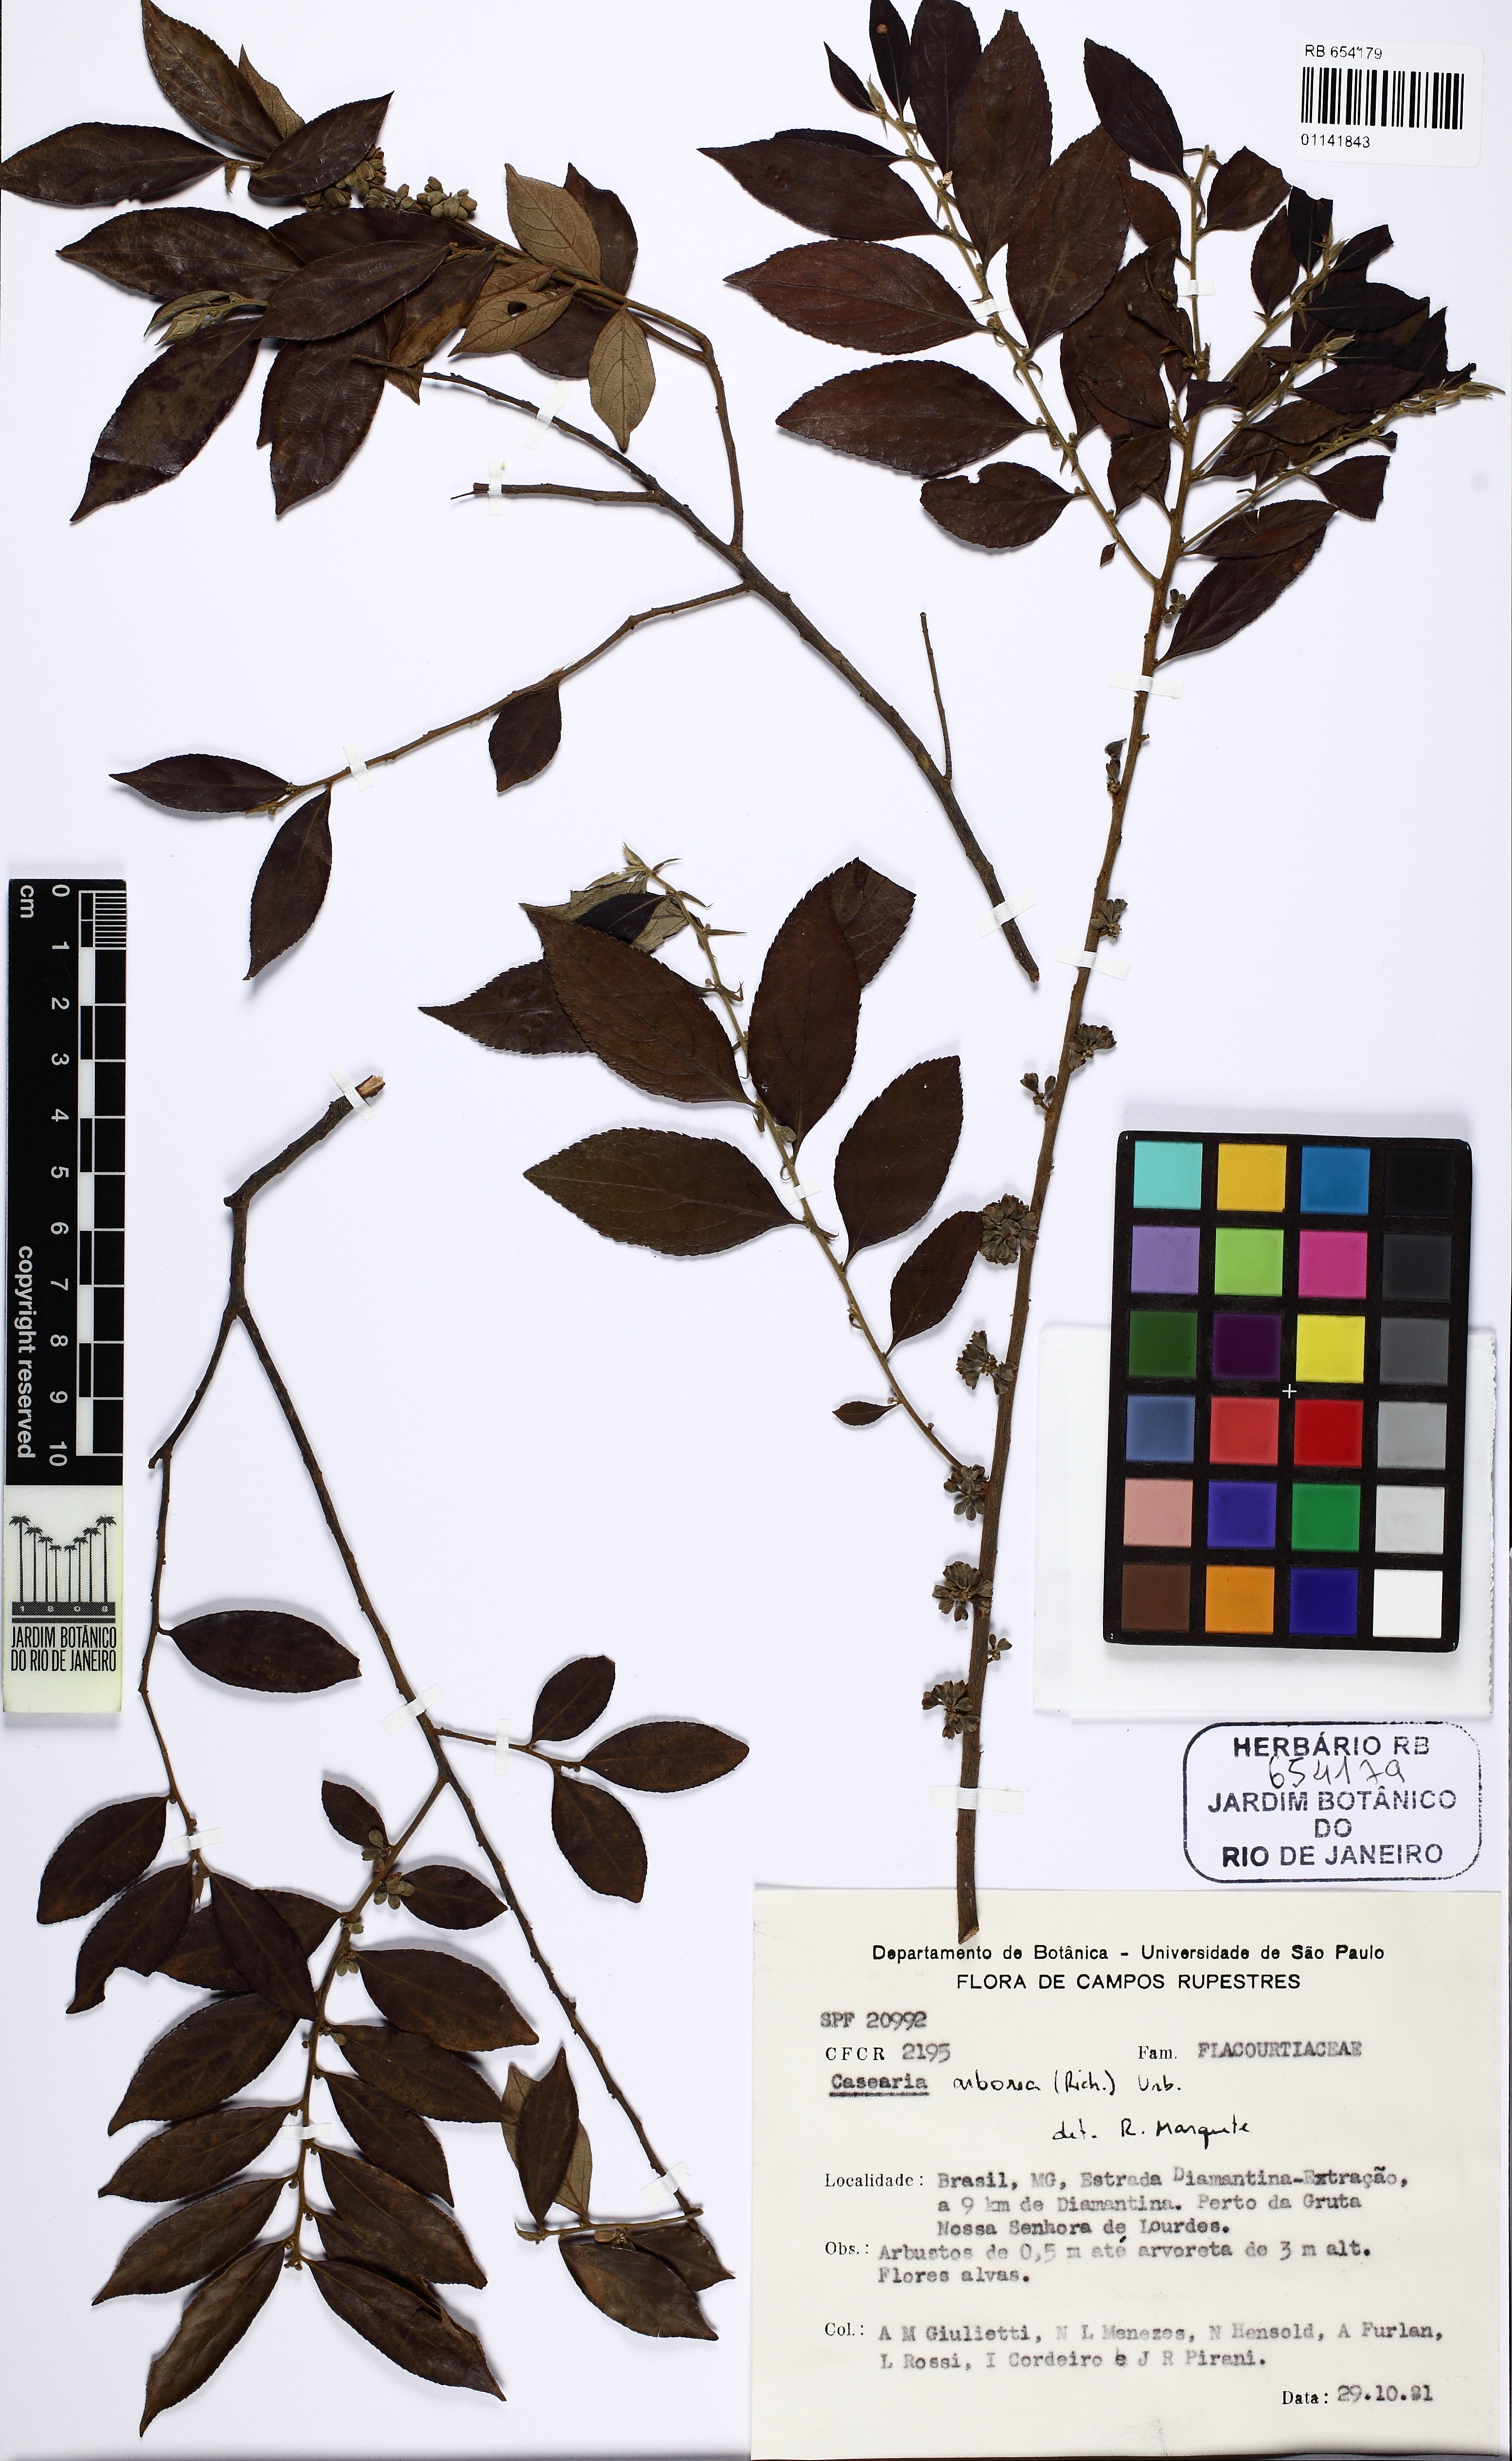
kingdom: Plantae
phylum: Tracheophyta
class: Magnoliopsida
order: Malpighiales
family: Salicaceae
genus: Casearia
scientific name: Casearia arborea
